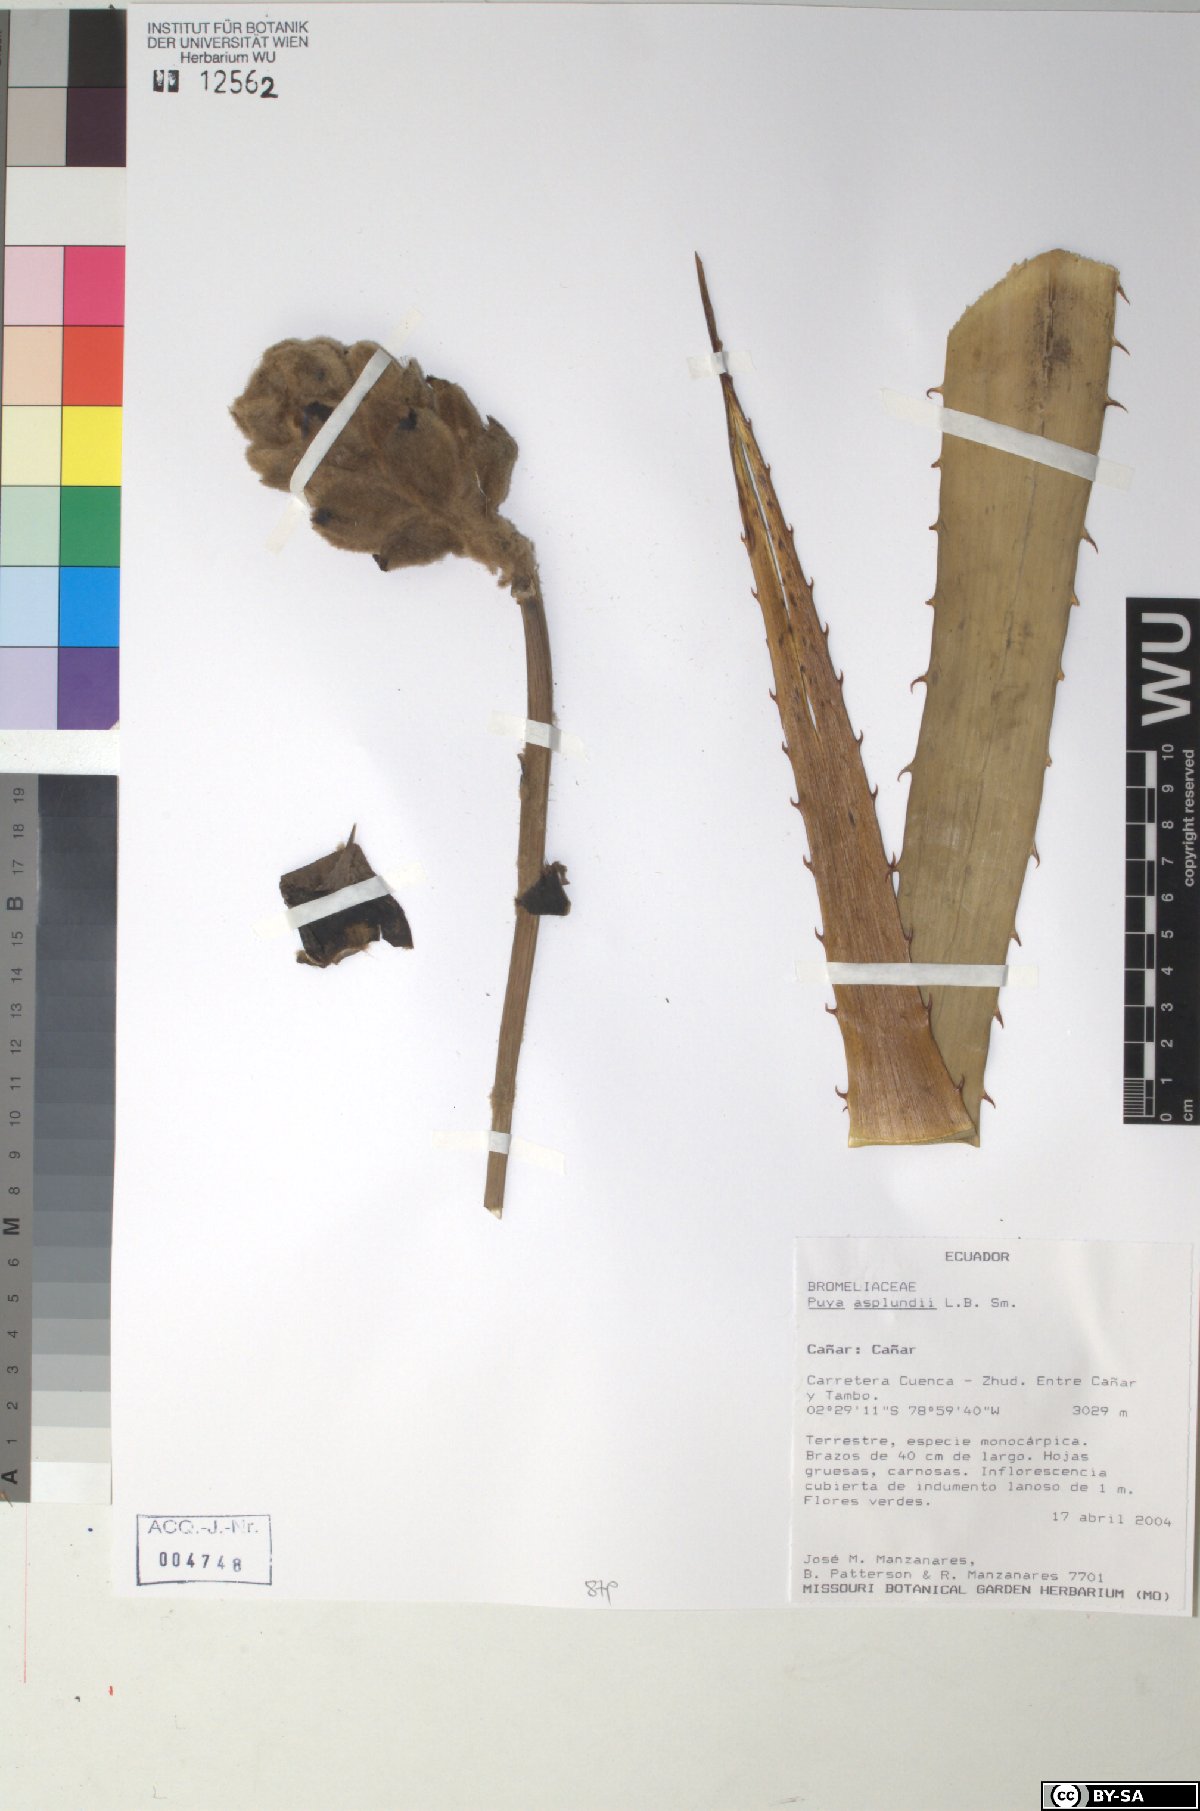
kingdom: Plantae
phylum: Tracheophyta
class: Liliopsida
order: Poales
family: Bromeliaceae
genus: Puya
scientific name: Puya glomerifera
